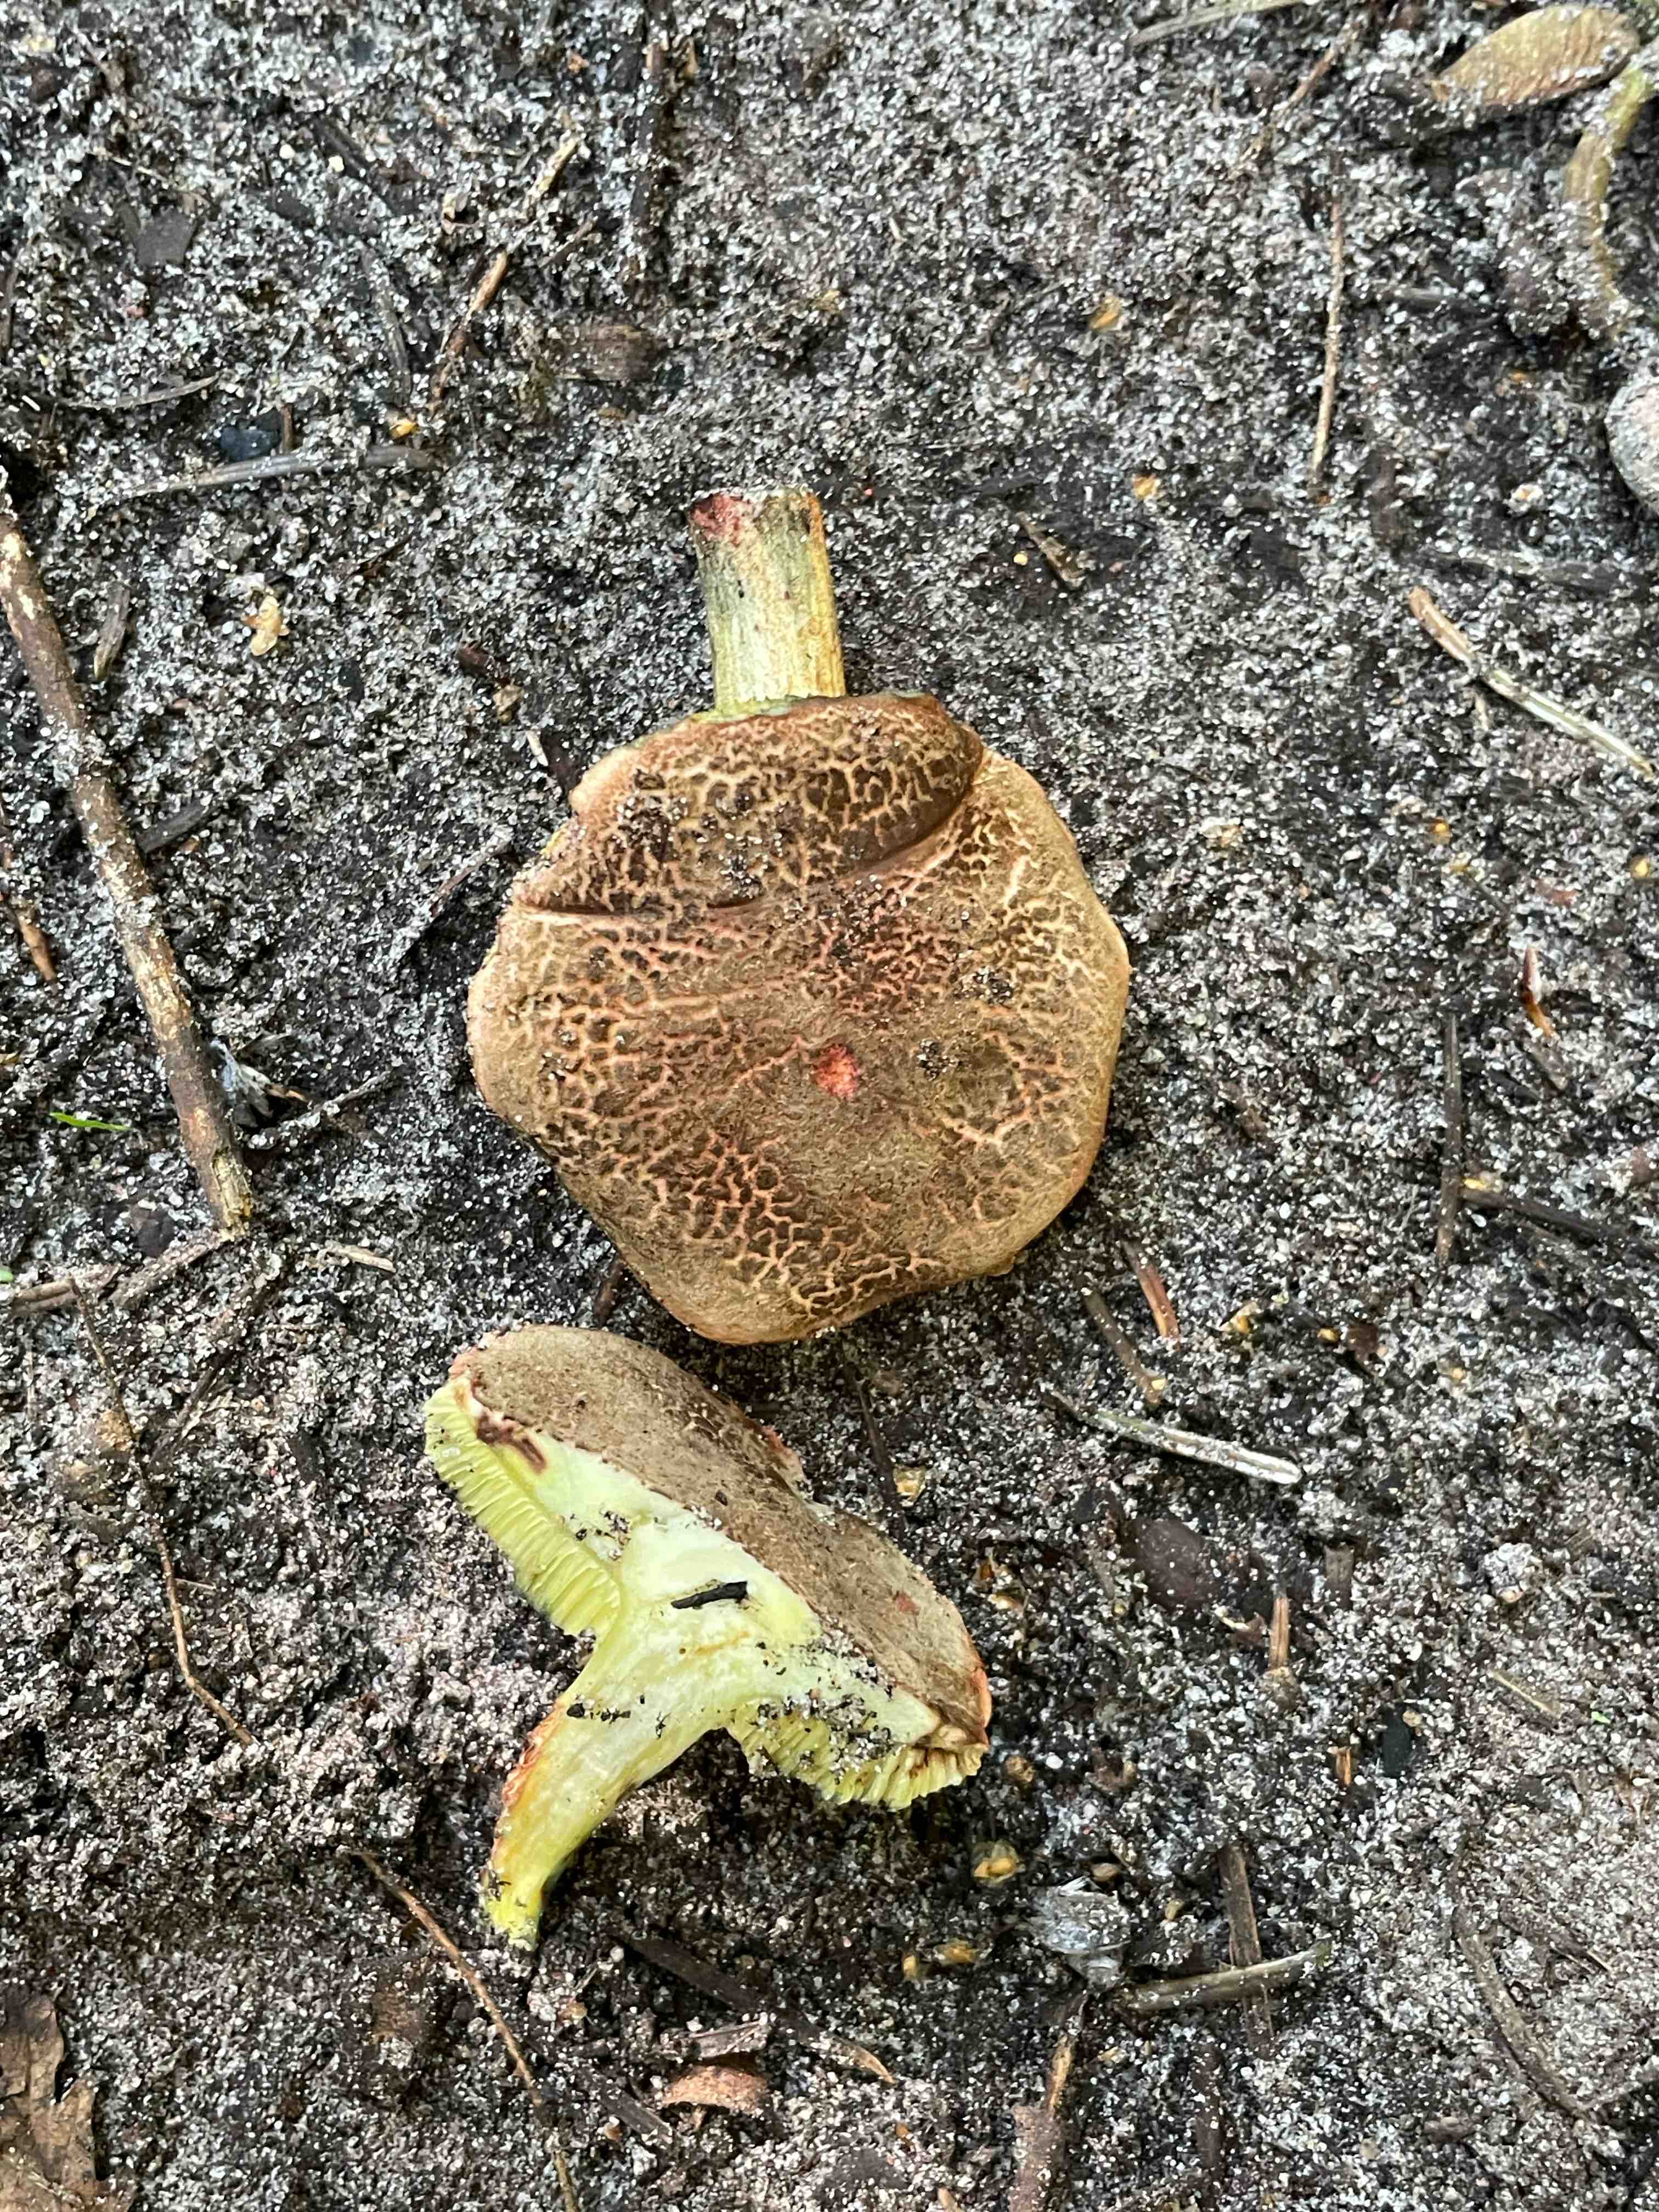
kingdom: Fungi
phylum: Basidiomycota
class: Agaricomycetes
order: Boletales
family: Boletaceae
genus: Xerocomellus
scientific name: Xerocomellus chrysenteron
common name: rødsprukken rørhat
